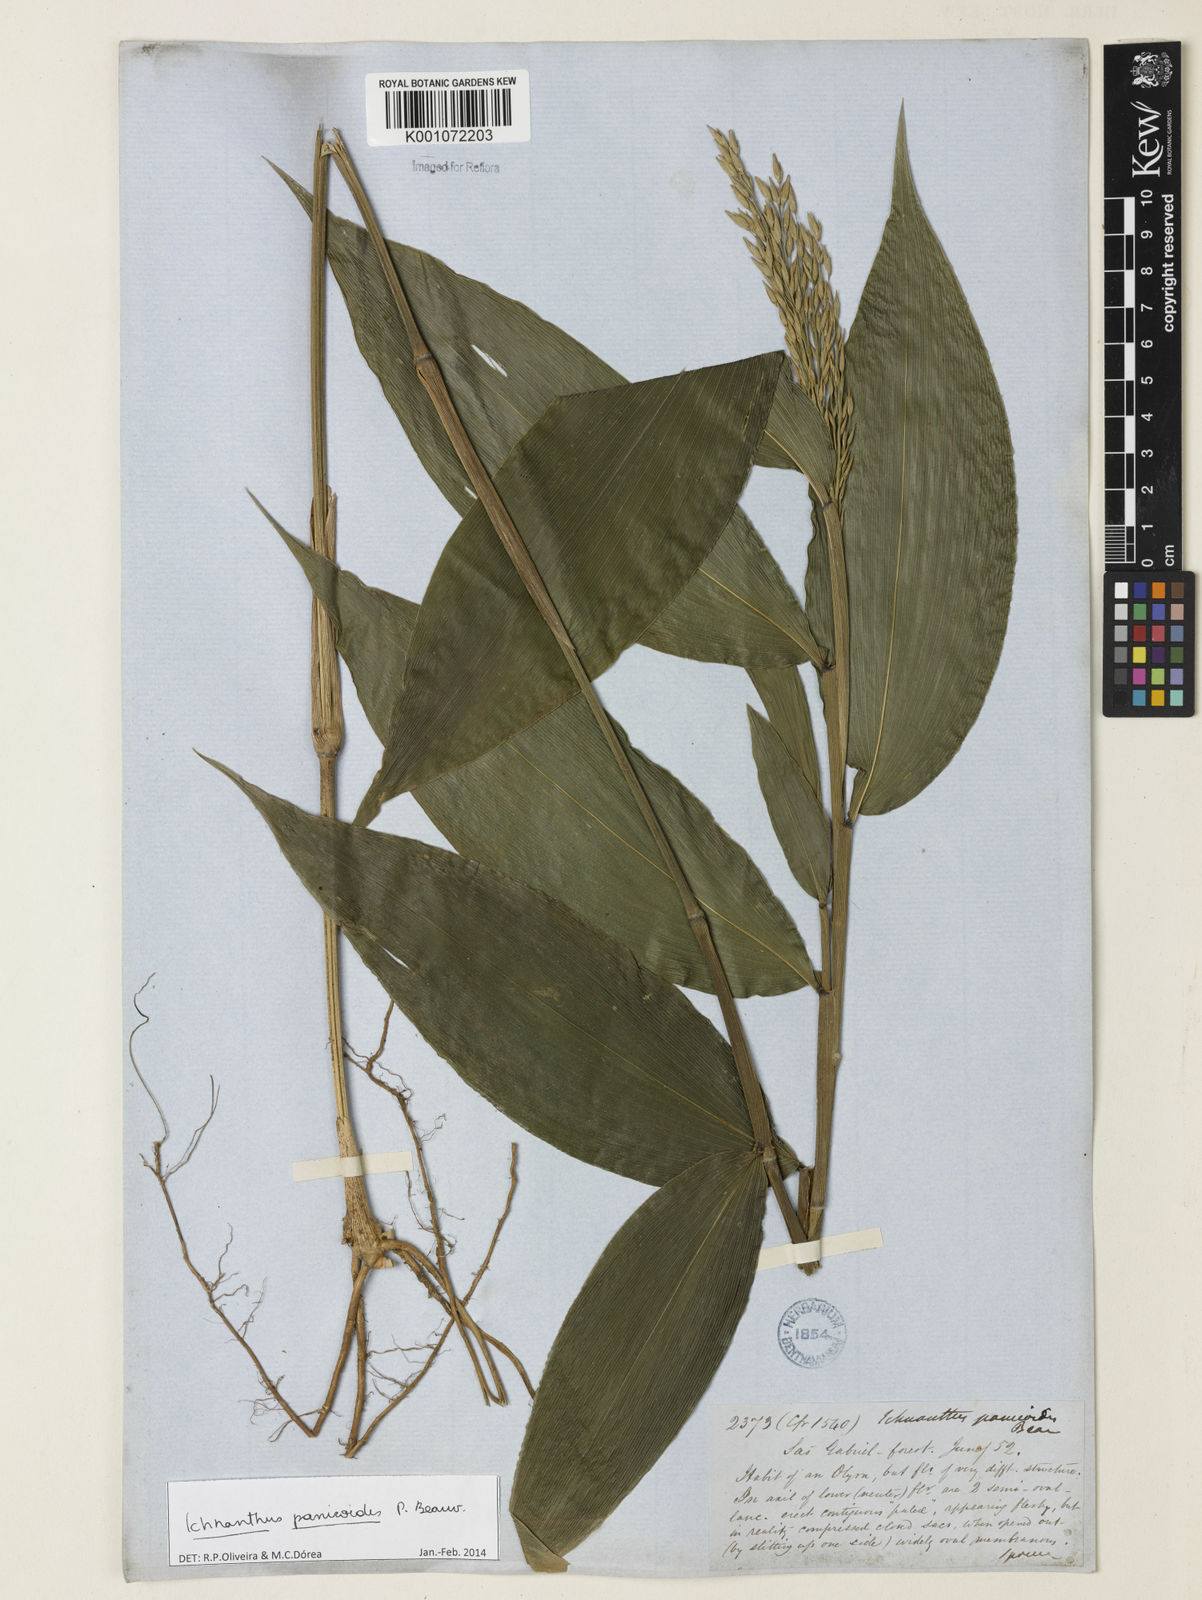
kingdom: Plantae
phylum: Tracheophyta
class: Liliopsida
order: Poales
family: Poaceae
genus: Ichnanthus
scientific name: Ichnanthus panicoides
